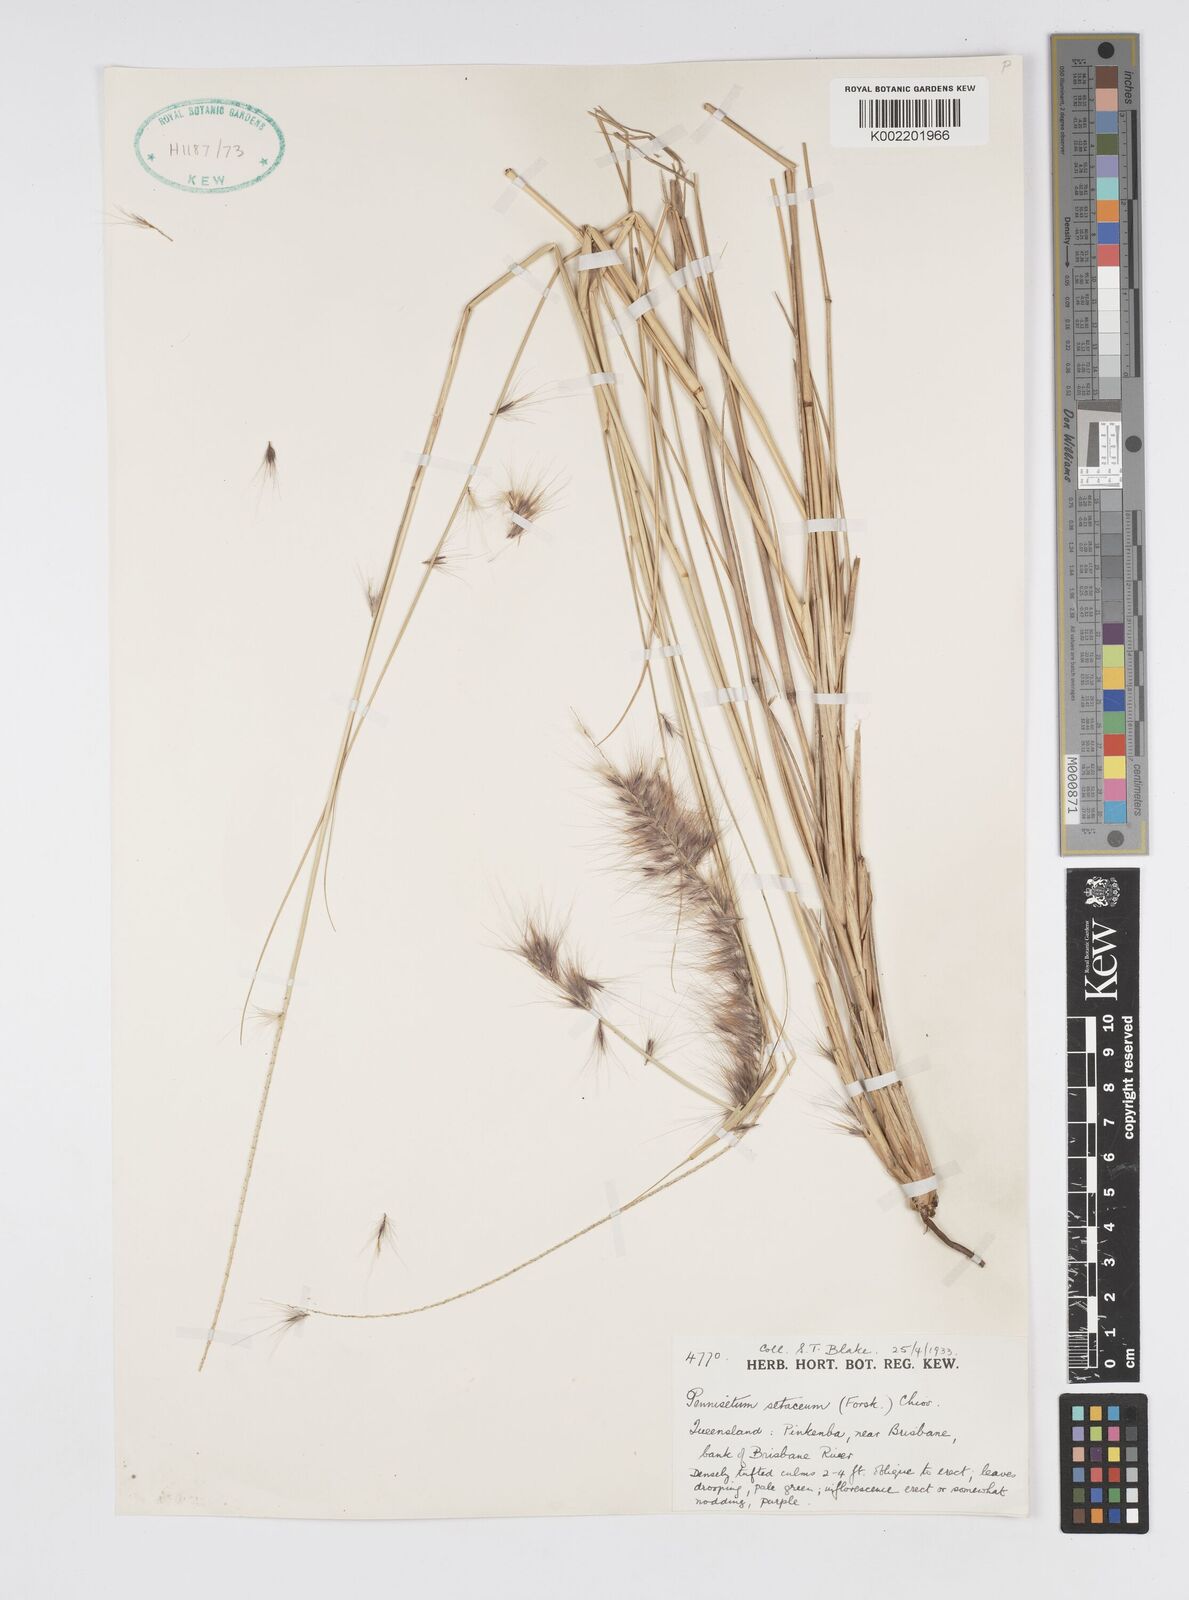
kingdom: Plantae
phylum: Tracheophyta
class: Liliopsida
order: Poales
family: Poaceae
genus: Cenchrus
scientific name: Cenchrus setaceus
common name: Crimson fountaingrass
